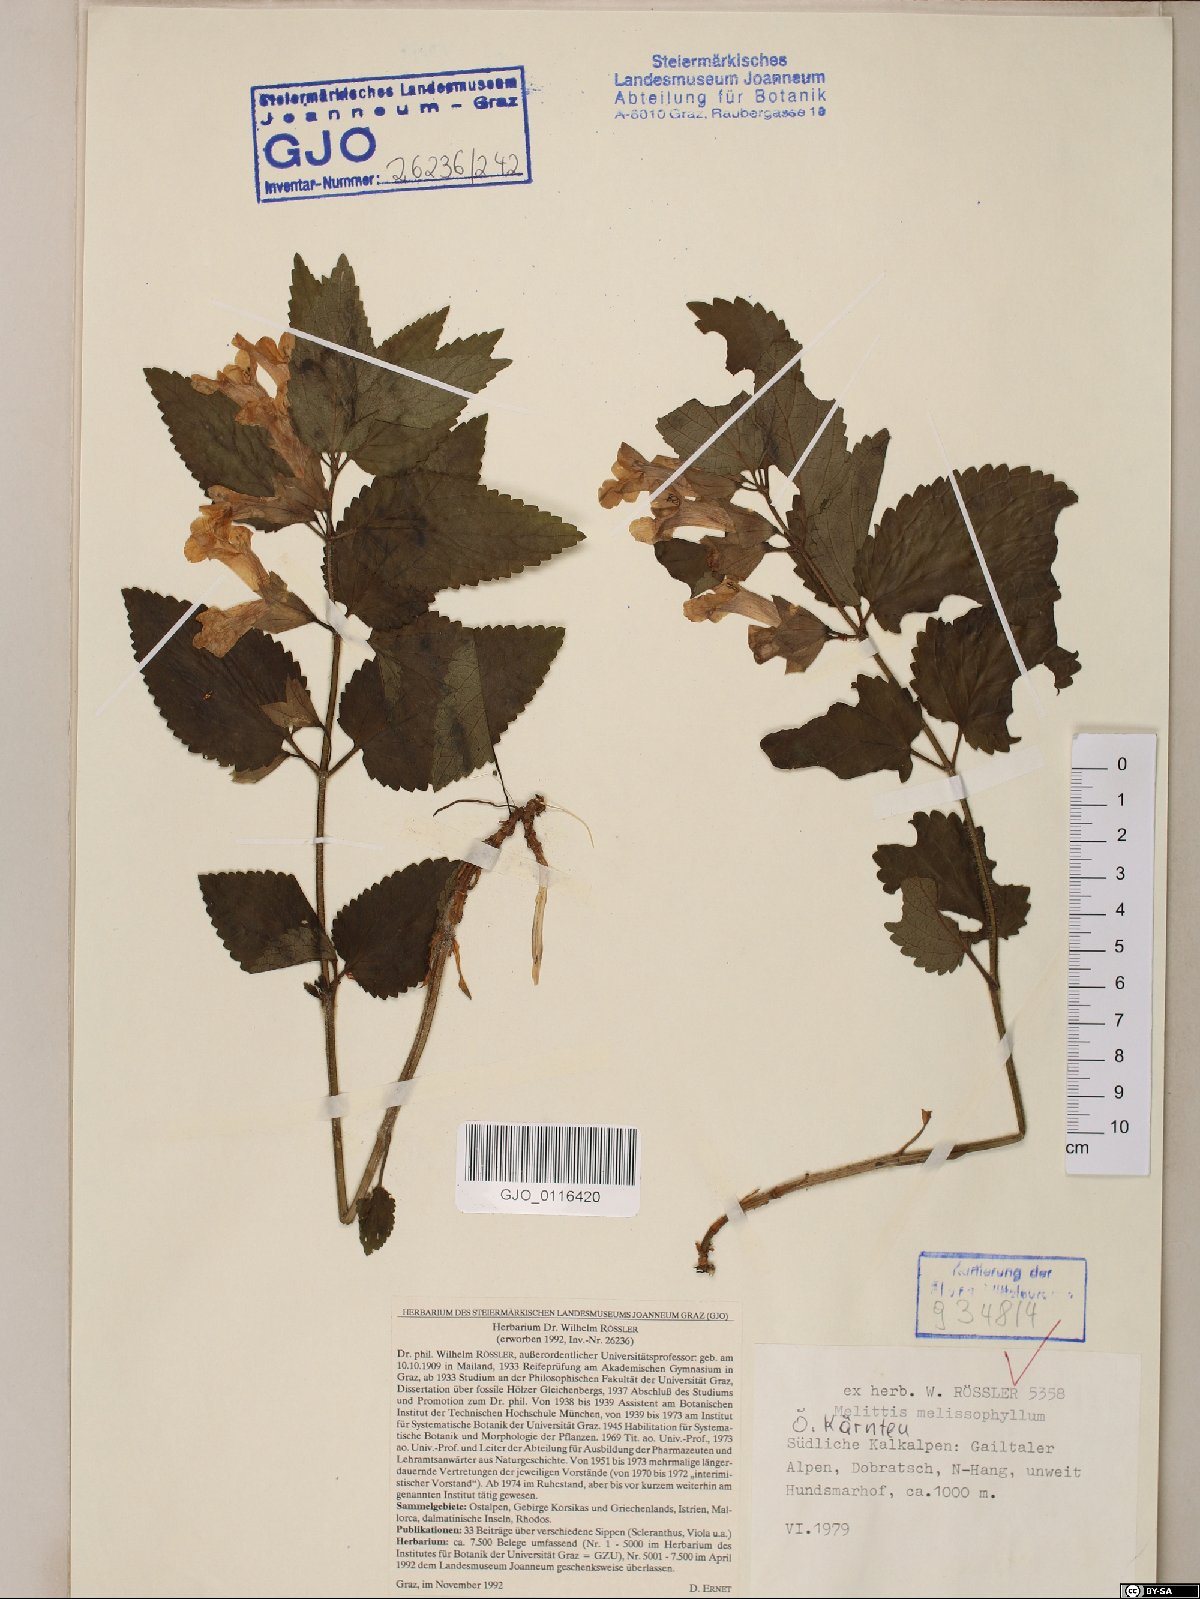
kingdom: Plantae
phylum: Tracheophyta
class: Magnoliopsida
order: Lamiales
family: Lamiaceae
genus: Melittis
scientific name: Melittis melissophyllum
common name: Bastard balm
